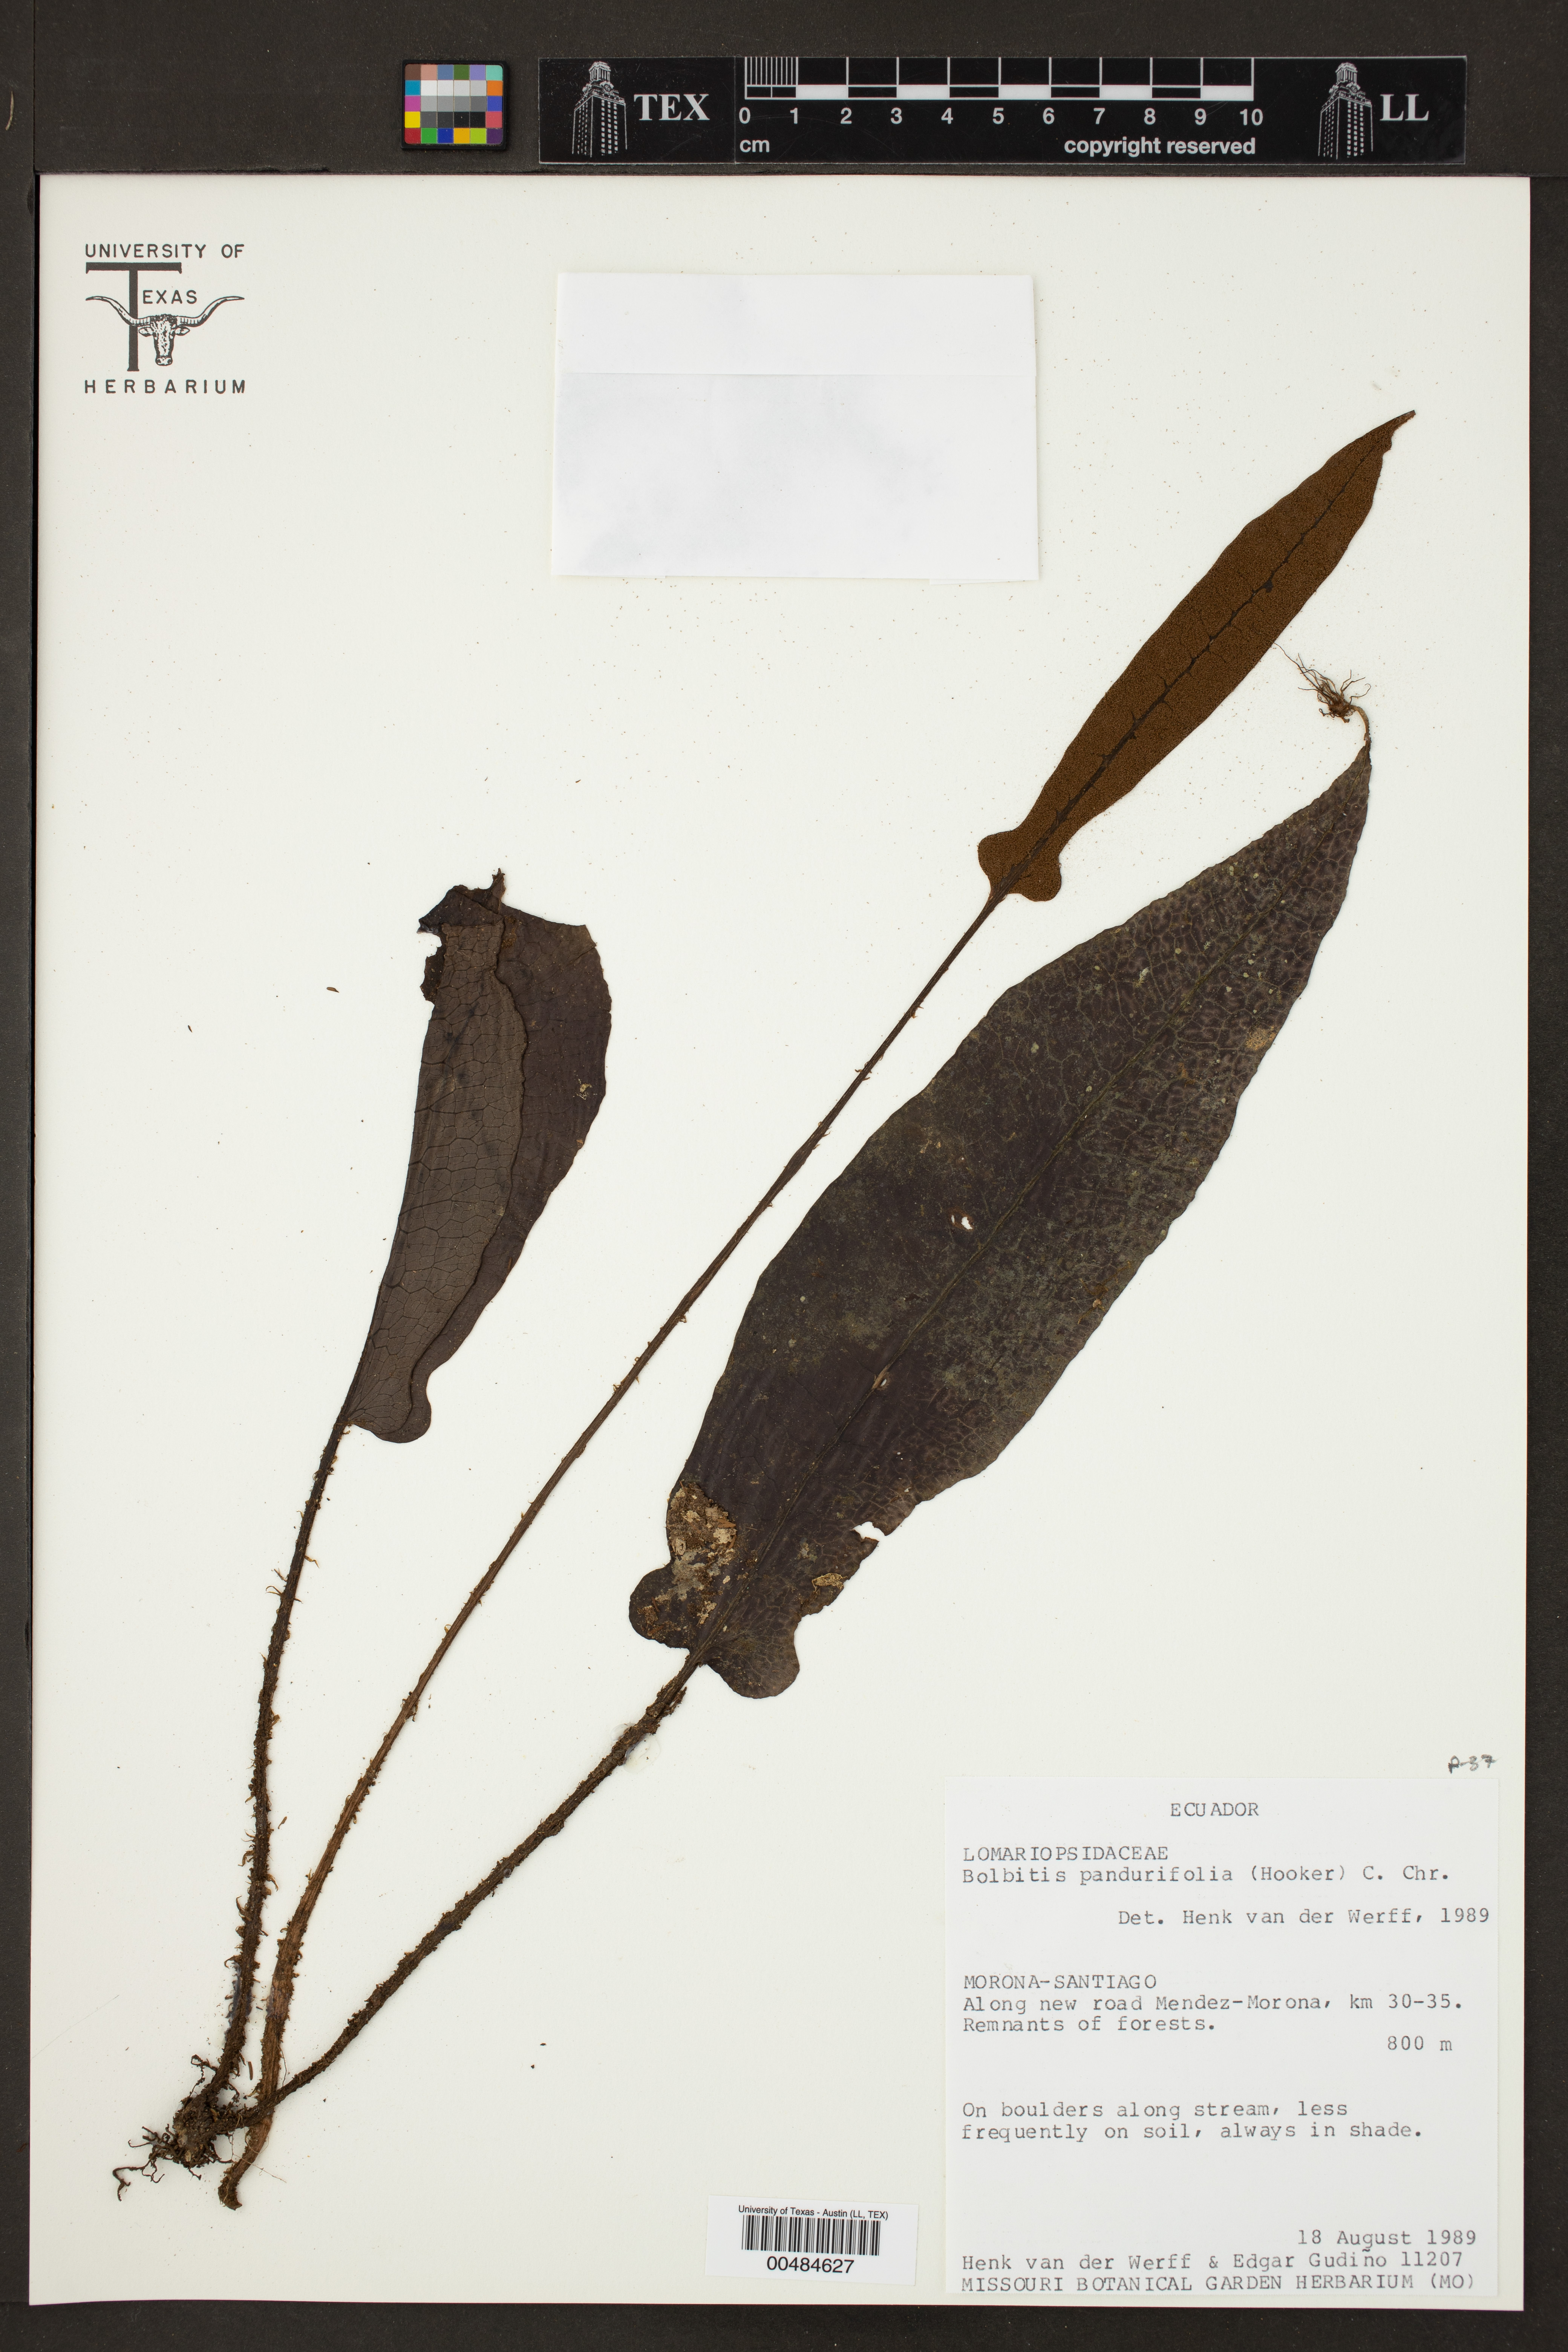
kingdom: Plantae
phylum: Tracheophyta
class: Polypodiopsida
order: Polypodiales
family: Dryopteridaceae
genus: Bolbitis
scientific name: Bolbitis pandurifolia
